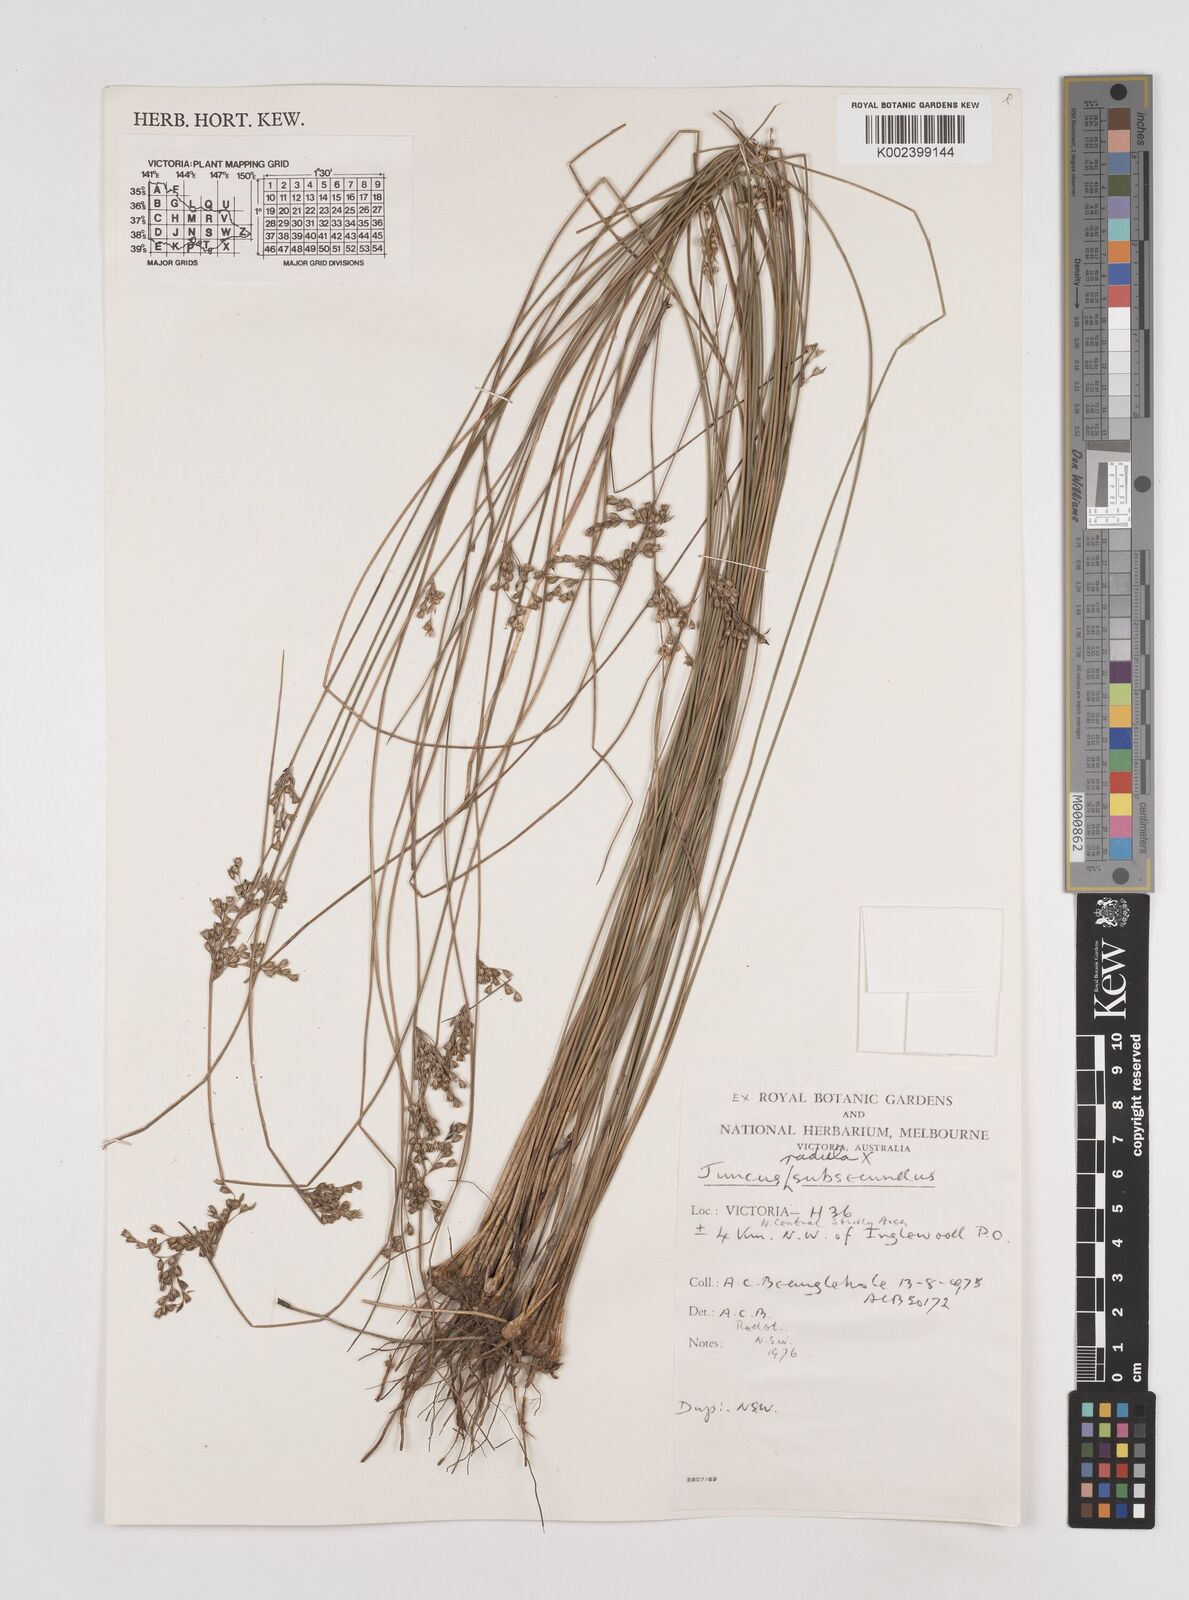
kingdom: Plantae
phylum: Tracheophyta
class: Liliopsida
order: Poales
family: Juncaceae
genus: Juncus
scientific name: Juncus subsecundus
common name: Fingered rush
